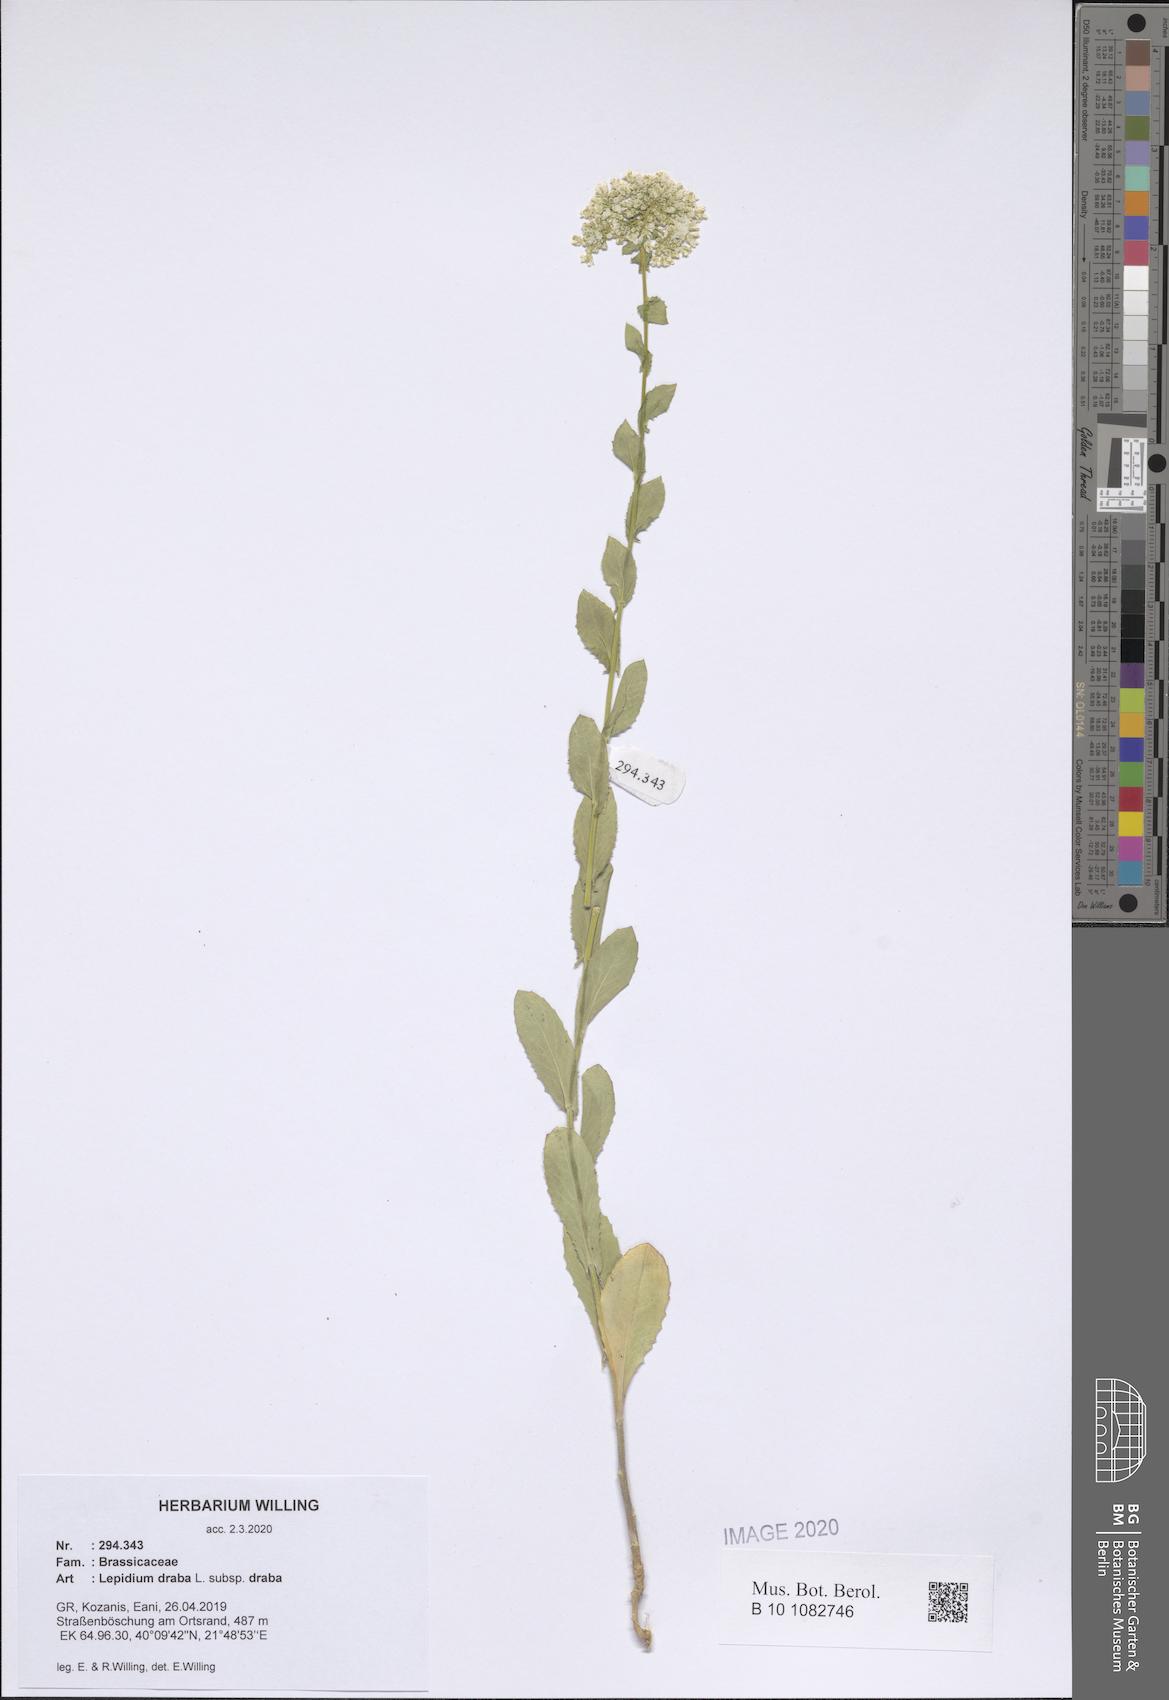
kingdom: Plantae
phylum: Tracheophyta
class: Magnoliopsida
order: Brassicales
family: Brassicaceae
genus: Lepidium
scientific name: Lepidium draba
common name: Hoary cress
